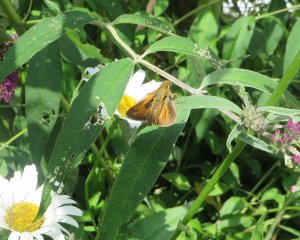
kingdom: Animalia
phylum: Arthropoda
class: Insecta
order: Lepidoptera
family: Hesperiidae
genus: Atalopedes
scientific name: Atalopedes campestris
